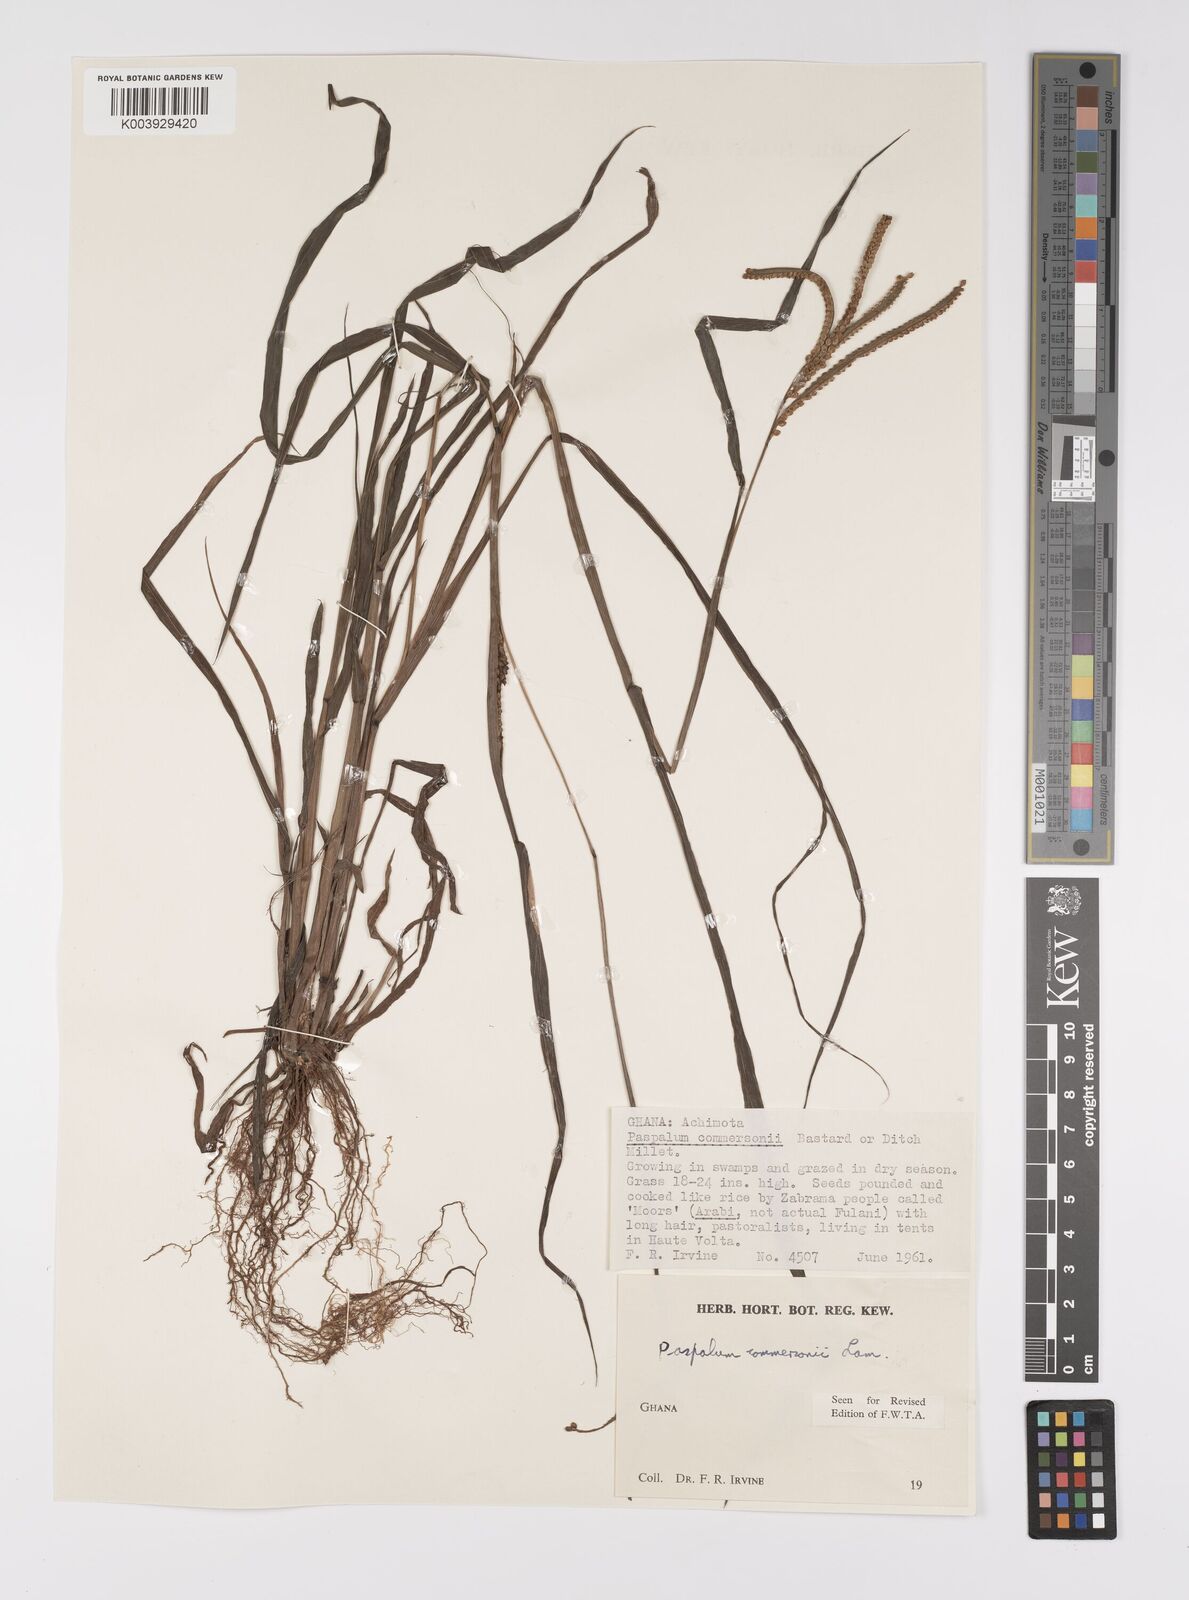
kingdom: Plantae
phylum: Tracheophyta
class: Liliopsida
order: Poales
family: Poaceae
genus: Paspalum
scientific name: Paspalum scrobiculatum
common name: Kodo millet
